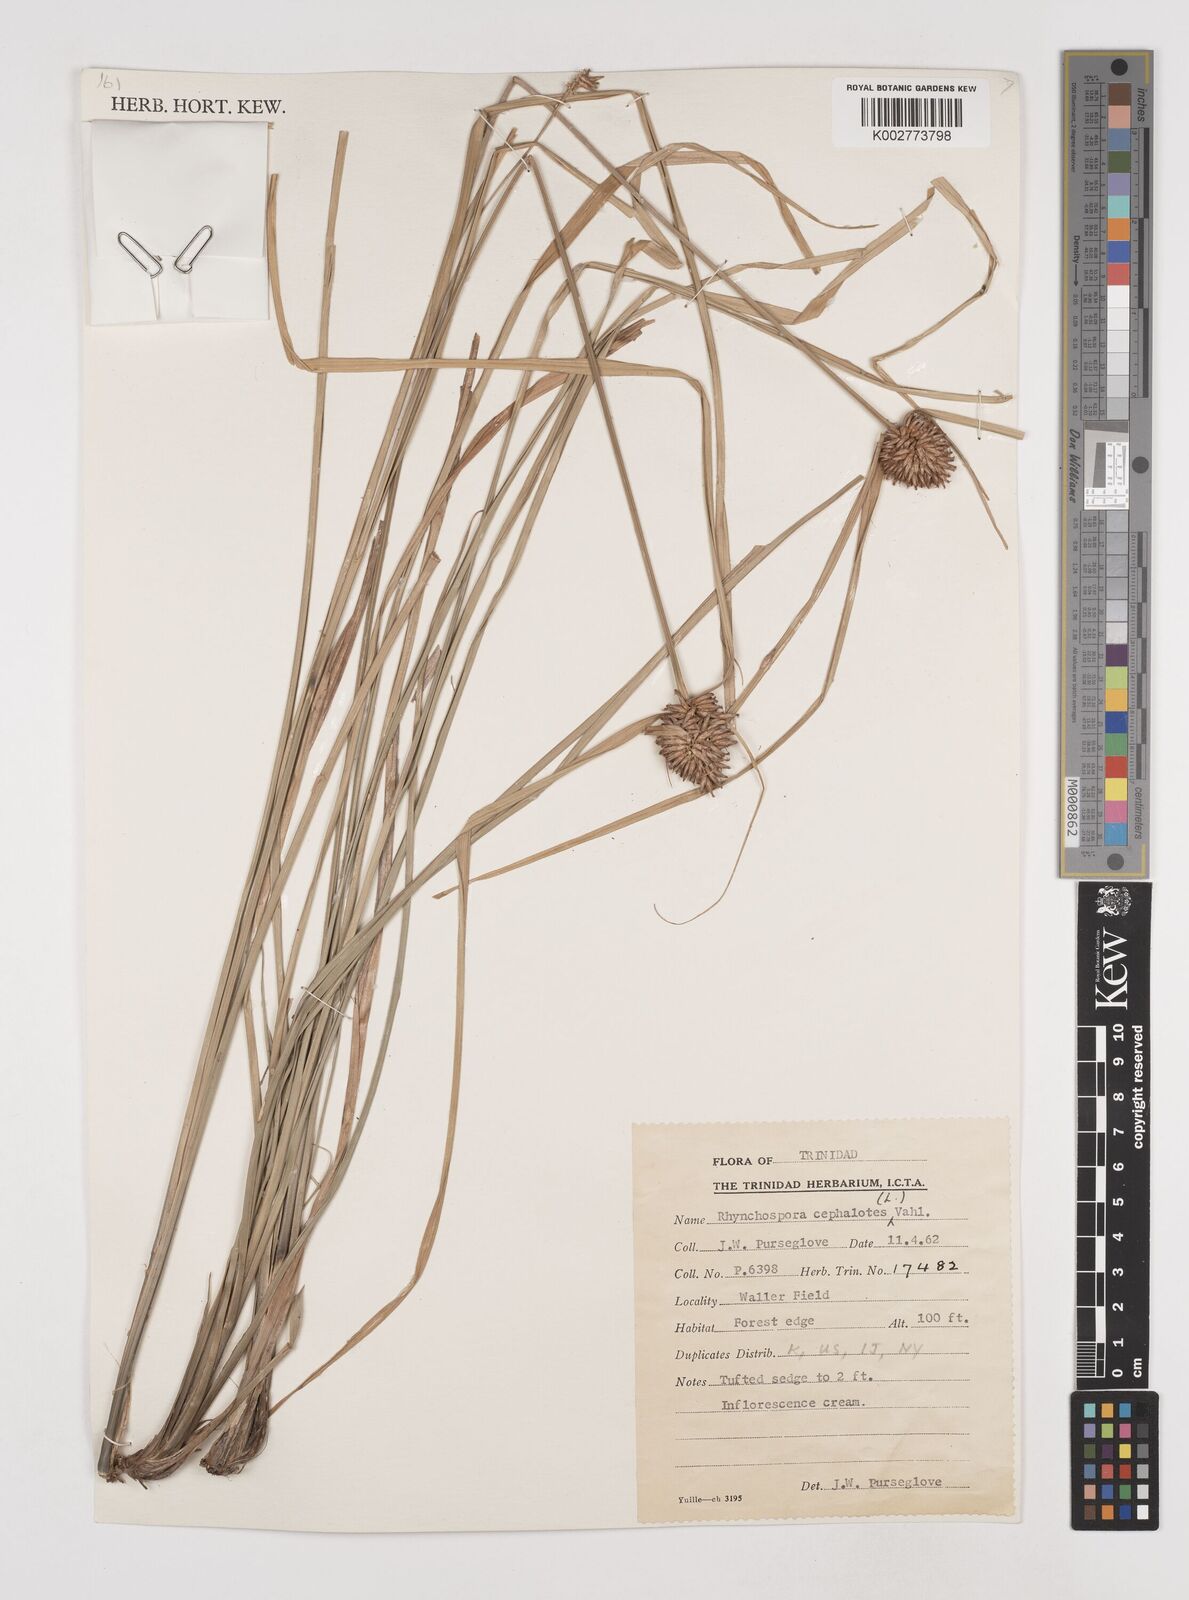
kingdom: Plantae
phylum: Tracheophyta
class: Liliopsida
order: Poales
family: Cyperaceae
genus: Rhynchospora
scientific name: Rhynchospora cephalotes
